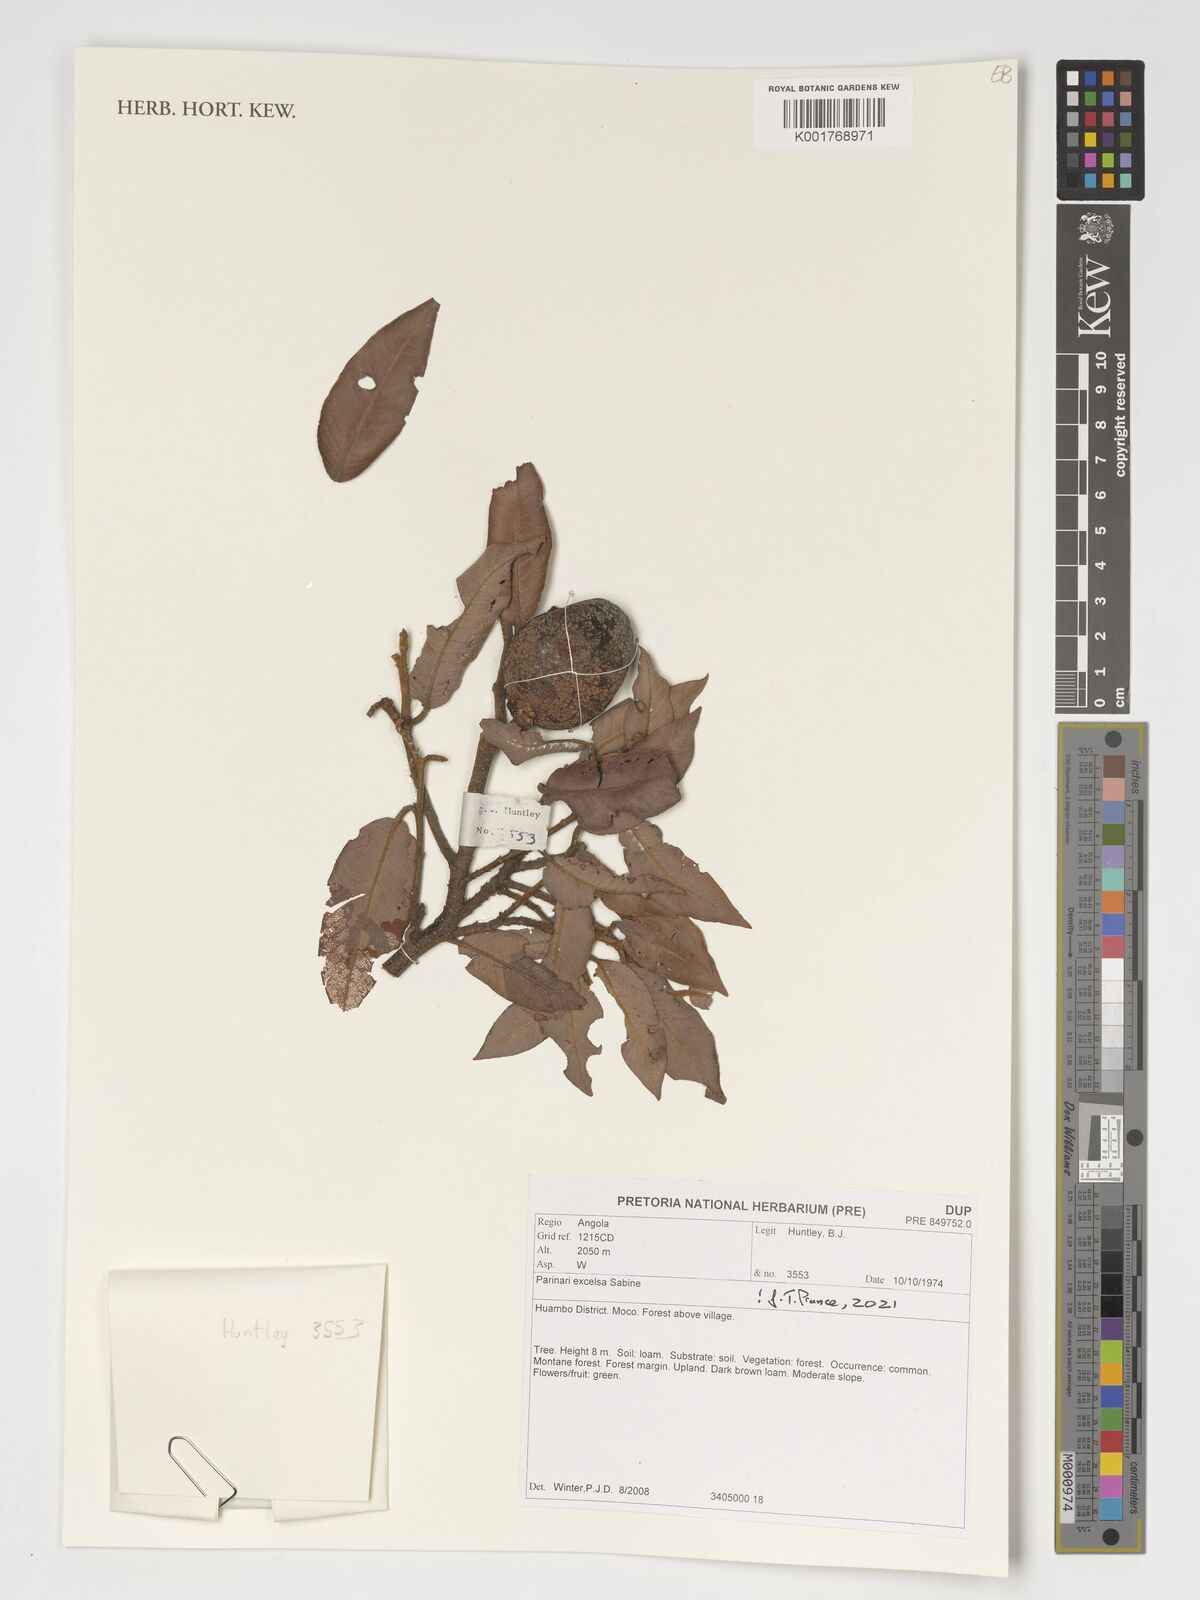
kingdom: Plantae
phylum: Tracheophyta
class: Magnoliopsida
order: Malpighiales
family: Chrysobalanaceae
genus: Parinari
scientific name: Parinari excelsa
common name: Guinea-plum
